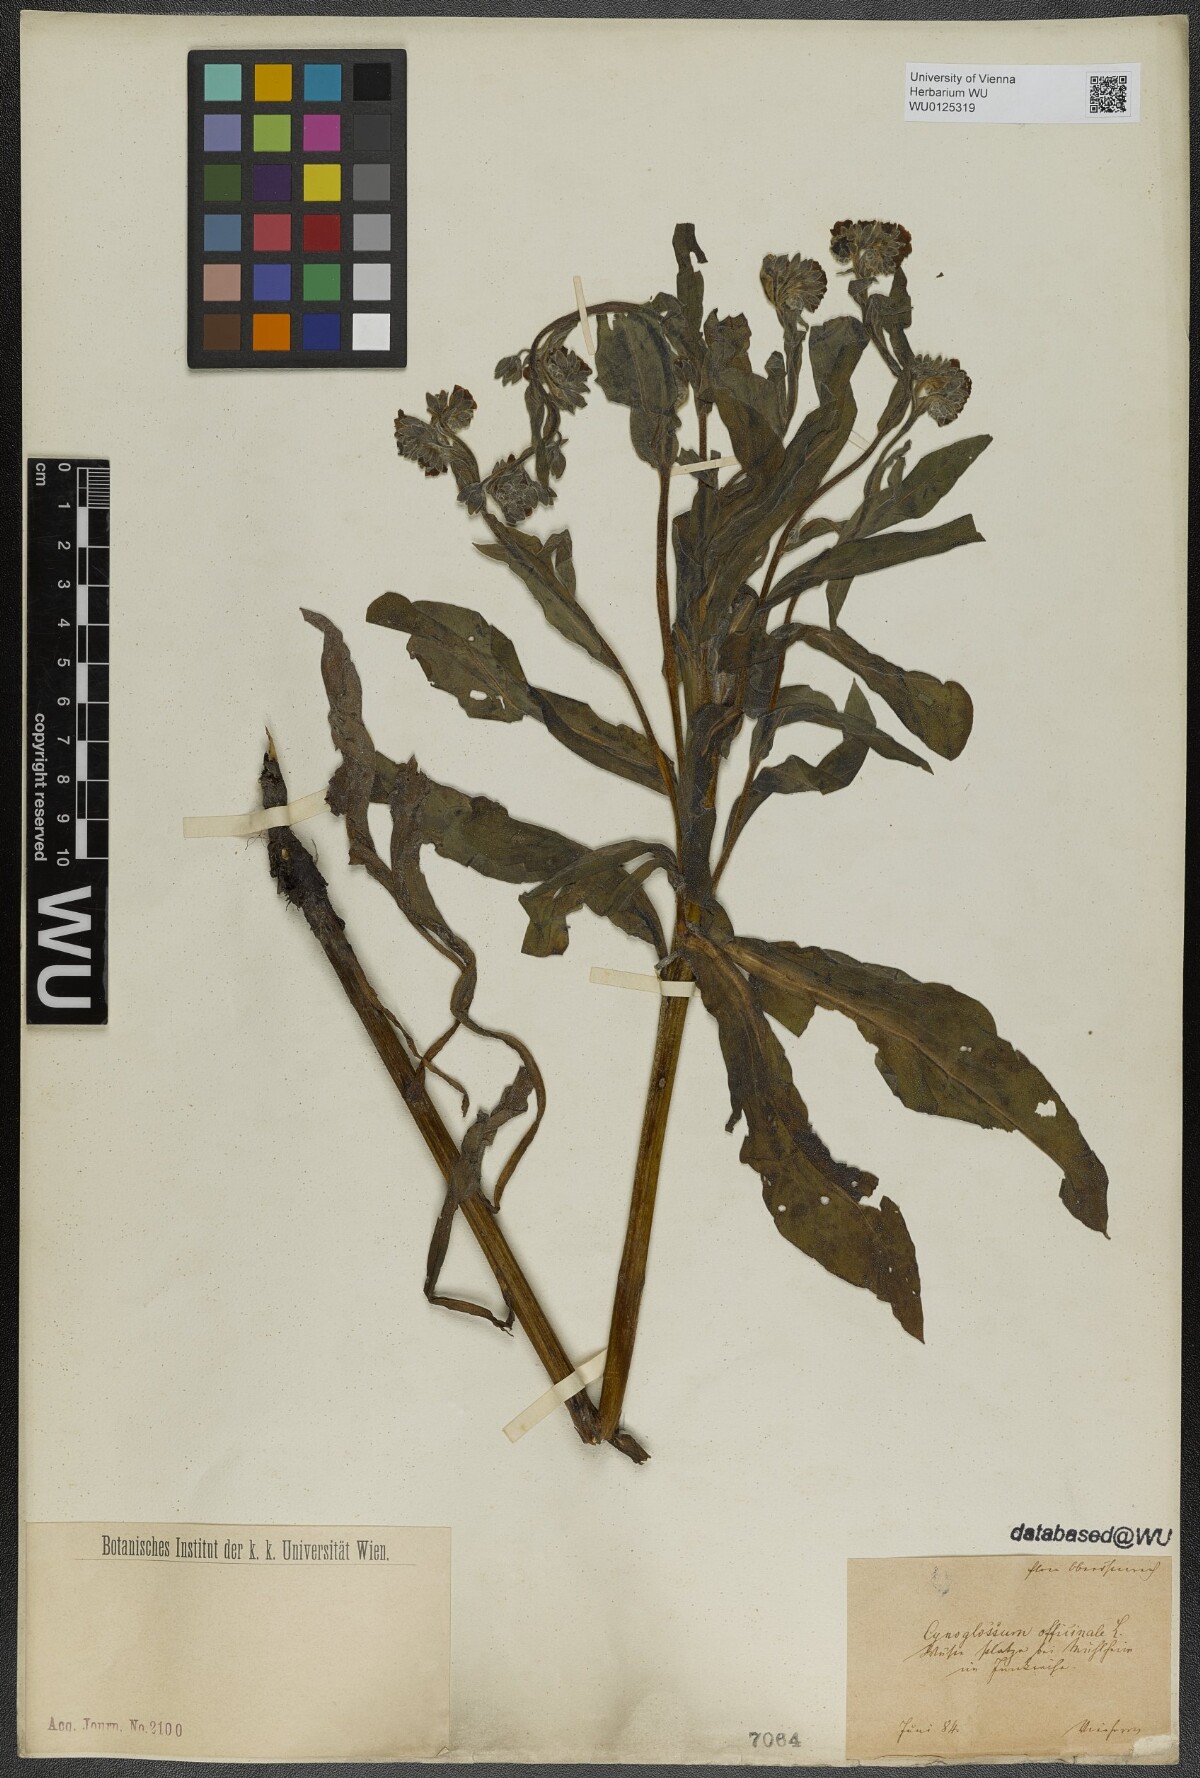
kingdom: Plantae
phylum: Tracheophyta
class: Magnoliopsida
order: Boraginales
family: Boraginaceae
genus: Cynoglossum
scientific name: Cynoglossum officinale
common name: Hound's-tongue
